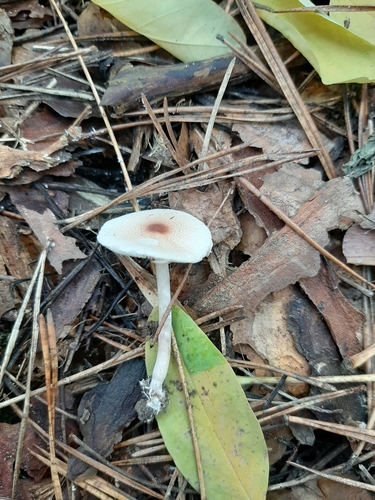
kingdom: Fungi
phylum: Basidiomycota
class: Agaricomycetes
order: Agaricales
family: Agaricaceae
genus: Lepiota
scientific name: Lepiota cristata
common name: Stinking dapperling
